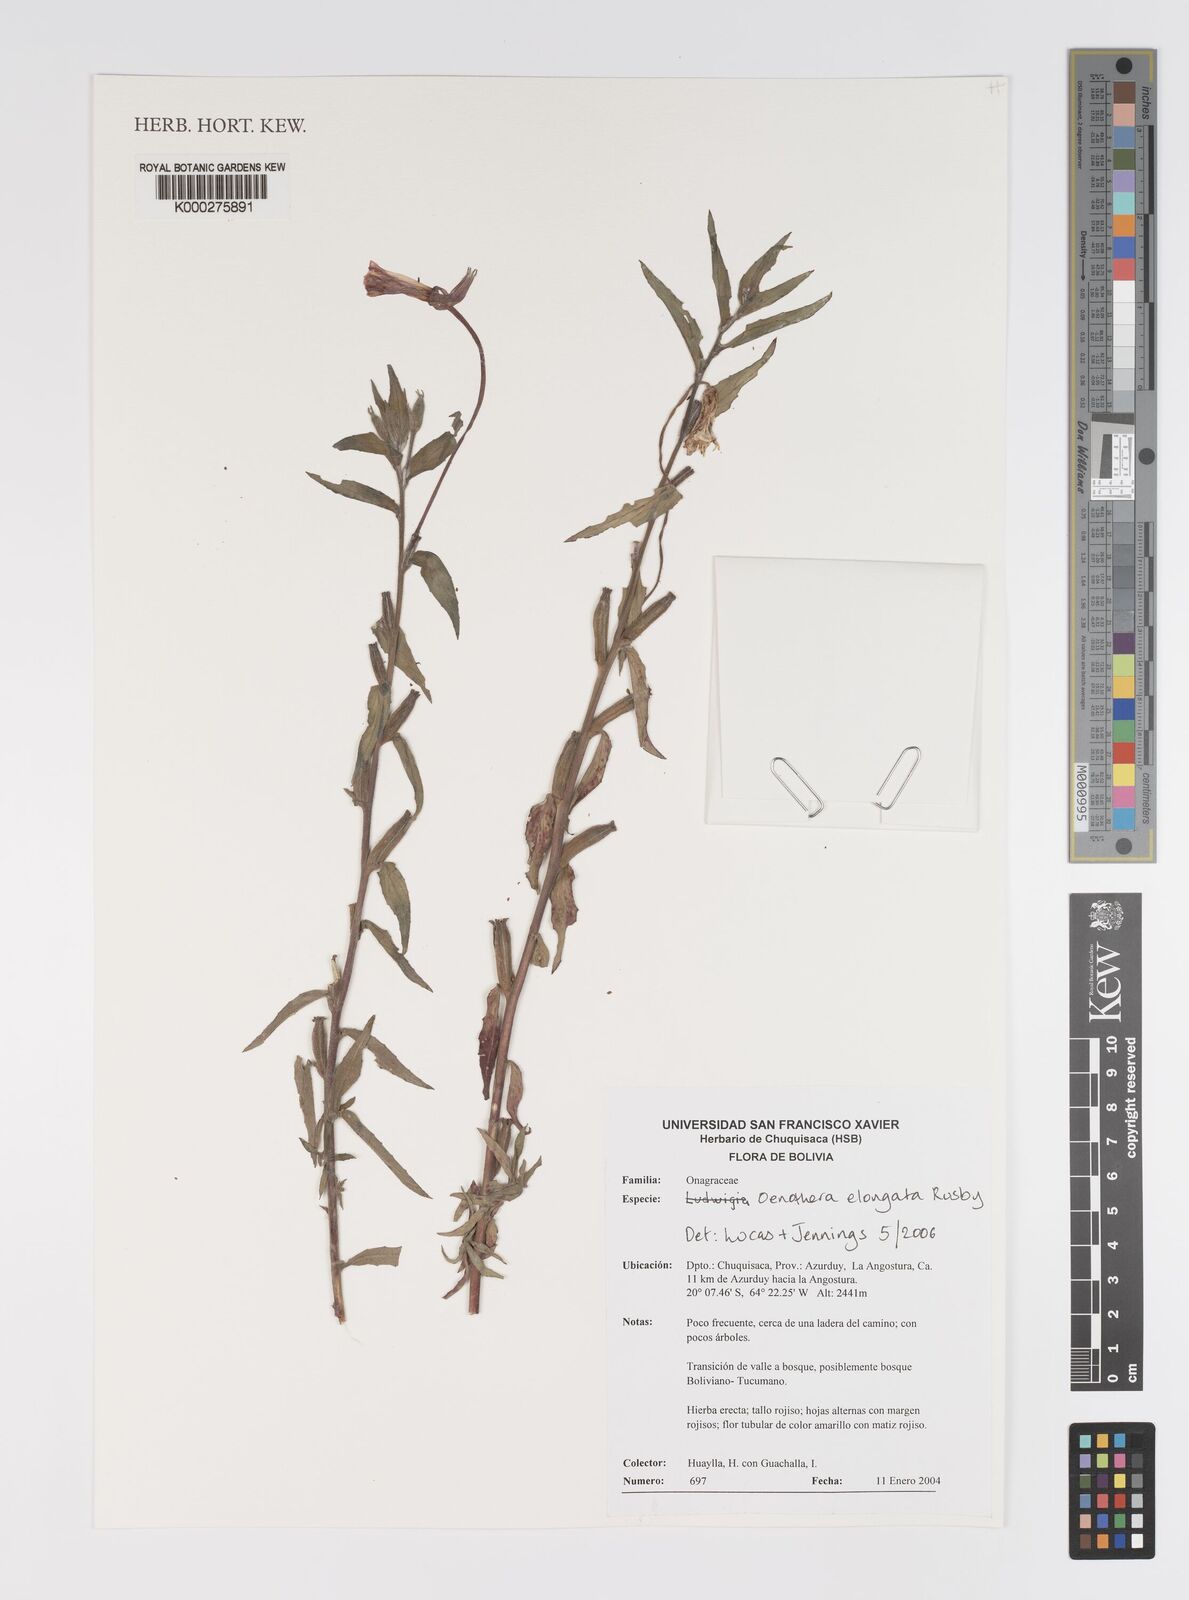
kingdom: Plantae
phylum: Tracheophyta
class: Magnoliopsida
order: Myrtales
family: Onagraceae
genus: Oenothera
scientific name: Oenothera elongata
